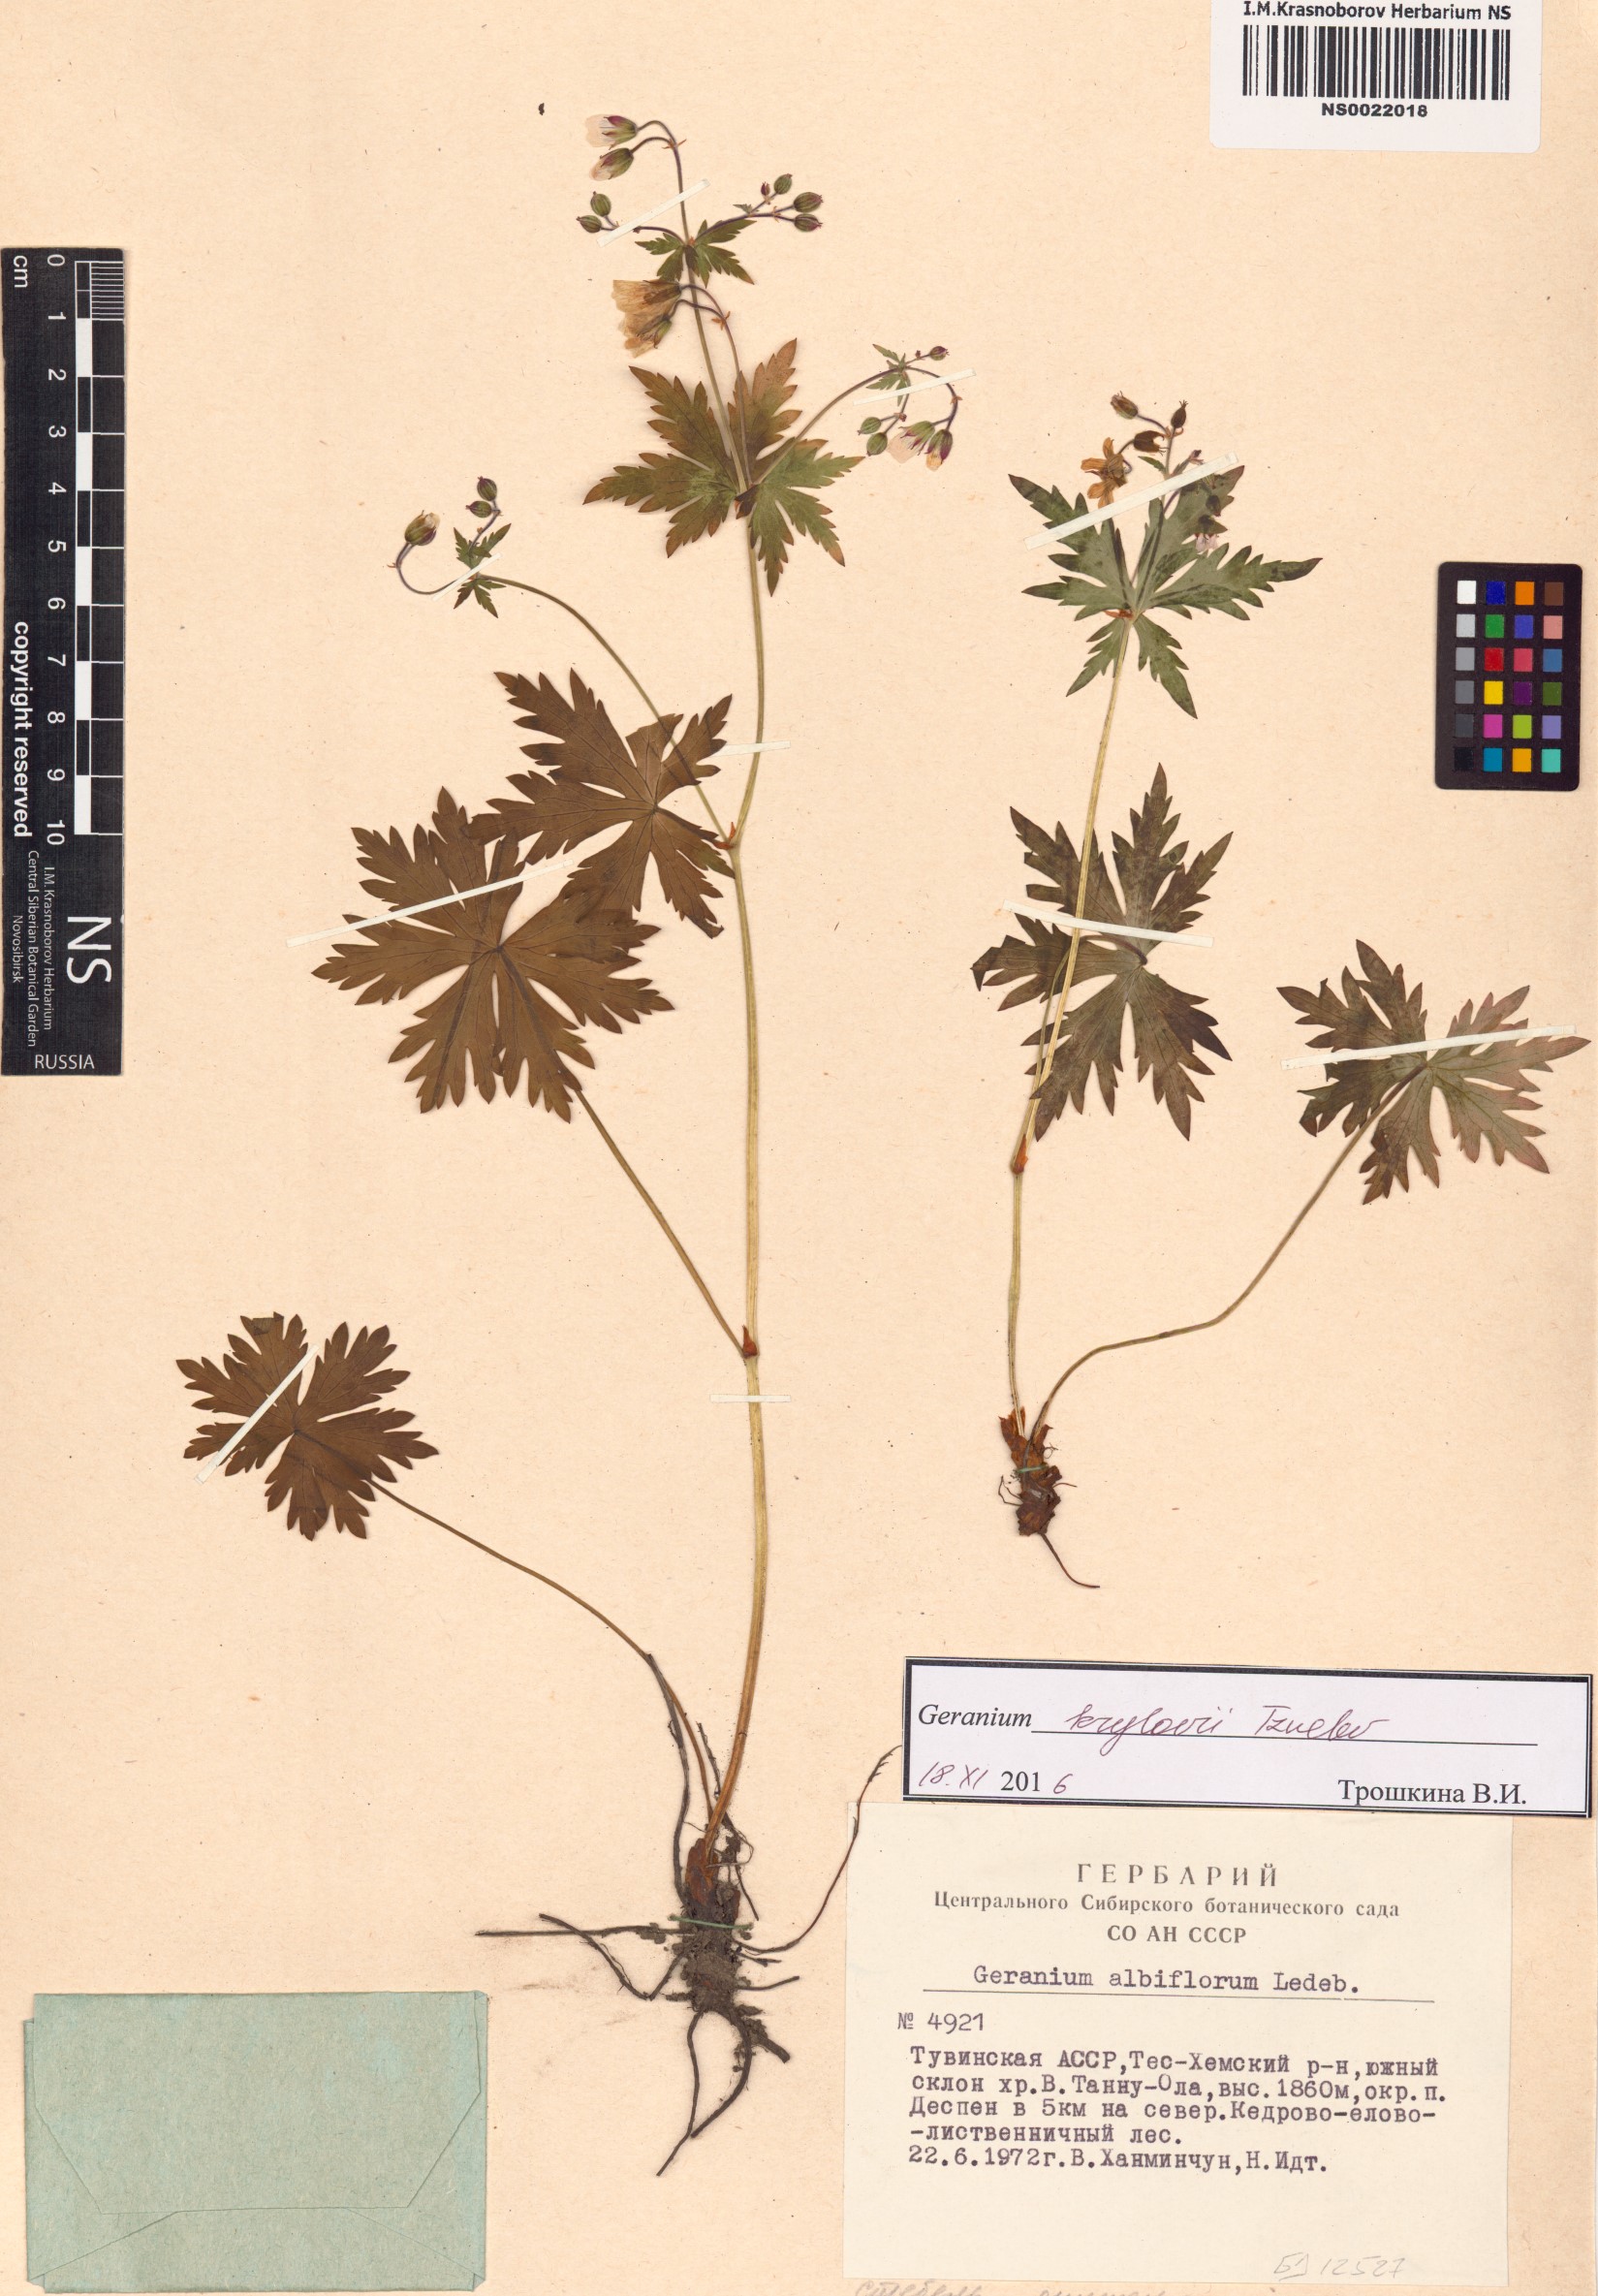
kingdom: Plantae
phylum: Tracheophyta
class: Magnoliopsida
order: Geraniales
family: Geraniaceae
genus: Geranium
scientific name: Geranium sylvaticum
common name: Wood crane's-bill
